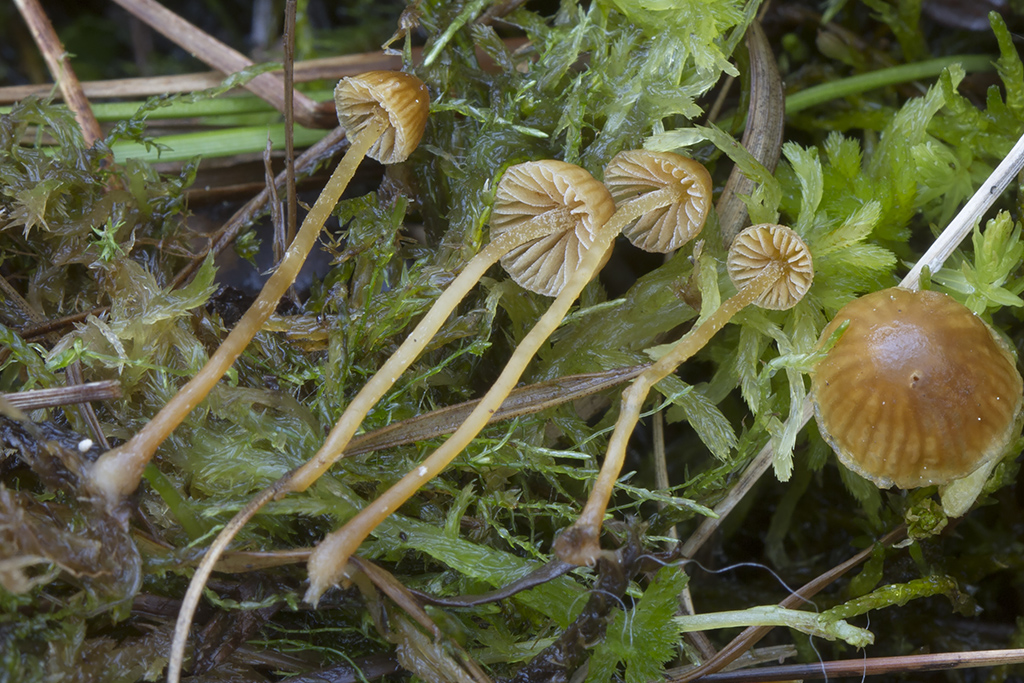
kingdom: Fungi
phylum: Basidiomycota
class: Agaricomycetes
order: Agaricales
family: Hymenogastraceae
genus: Galerina
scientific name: Galerina
